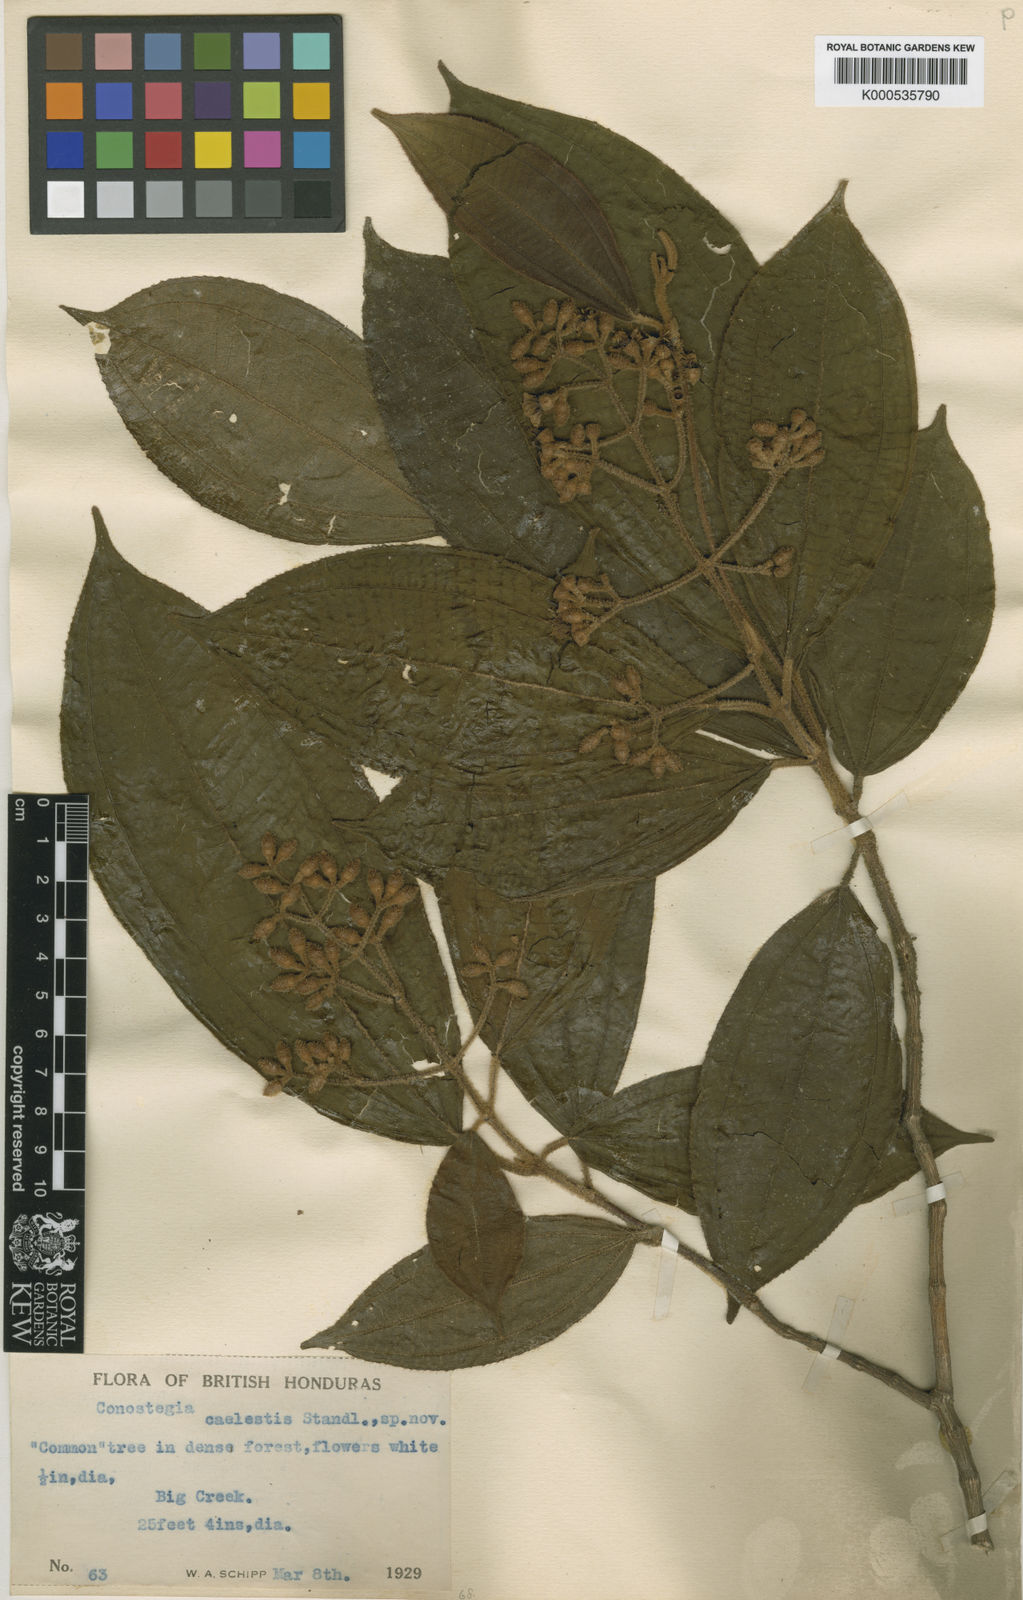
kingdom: Plantae
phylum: Tracheophyta
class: Magnoliopsida
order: Myrtales
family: Melastomataceae
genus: Miconia
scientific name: Miconia caelestis
